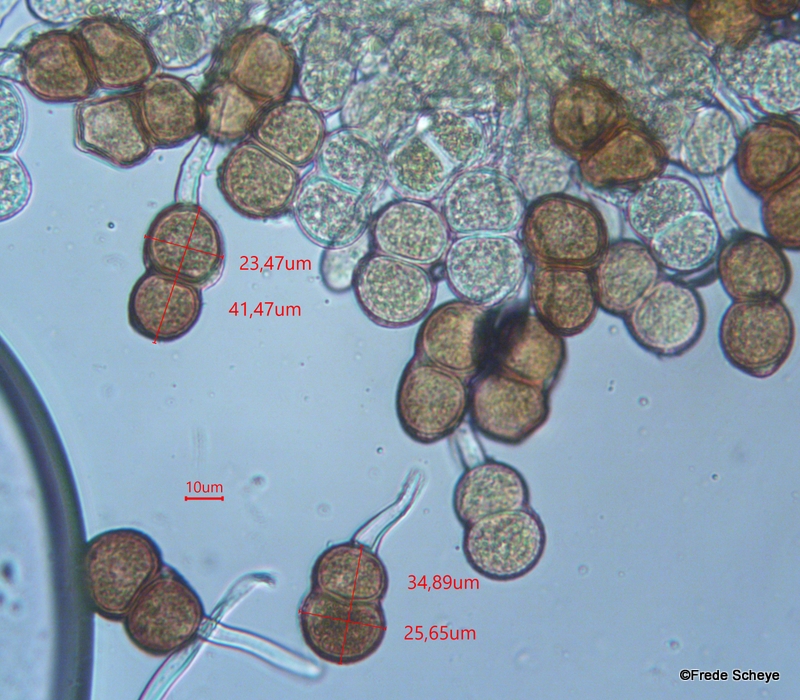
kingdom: Fungi
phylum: Basidiomycota
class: Pucciniomycetes
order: Pucciniales
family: Pucciniaceae
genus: Cumminsiella
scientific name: Cumminsiella mirabilissima
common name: mahonierust
